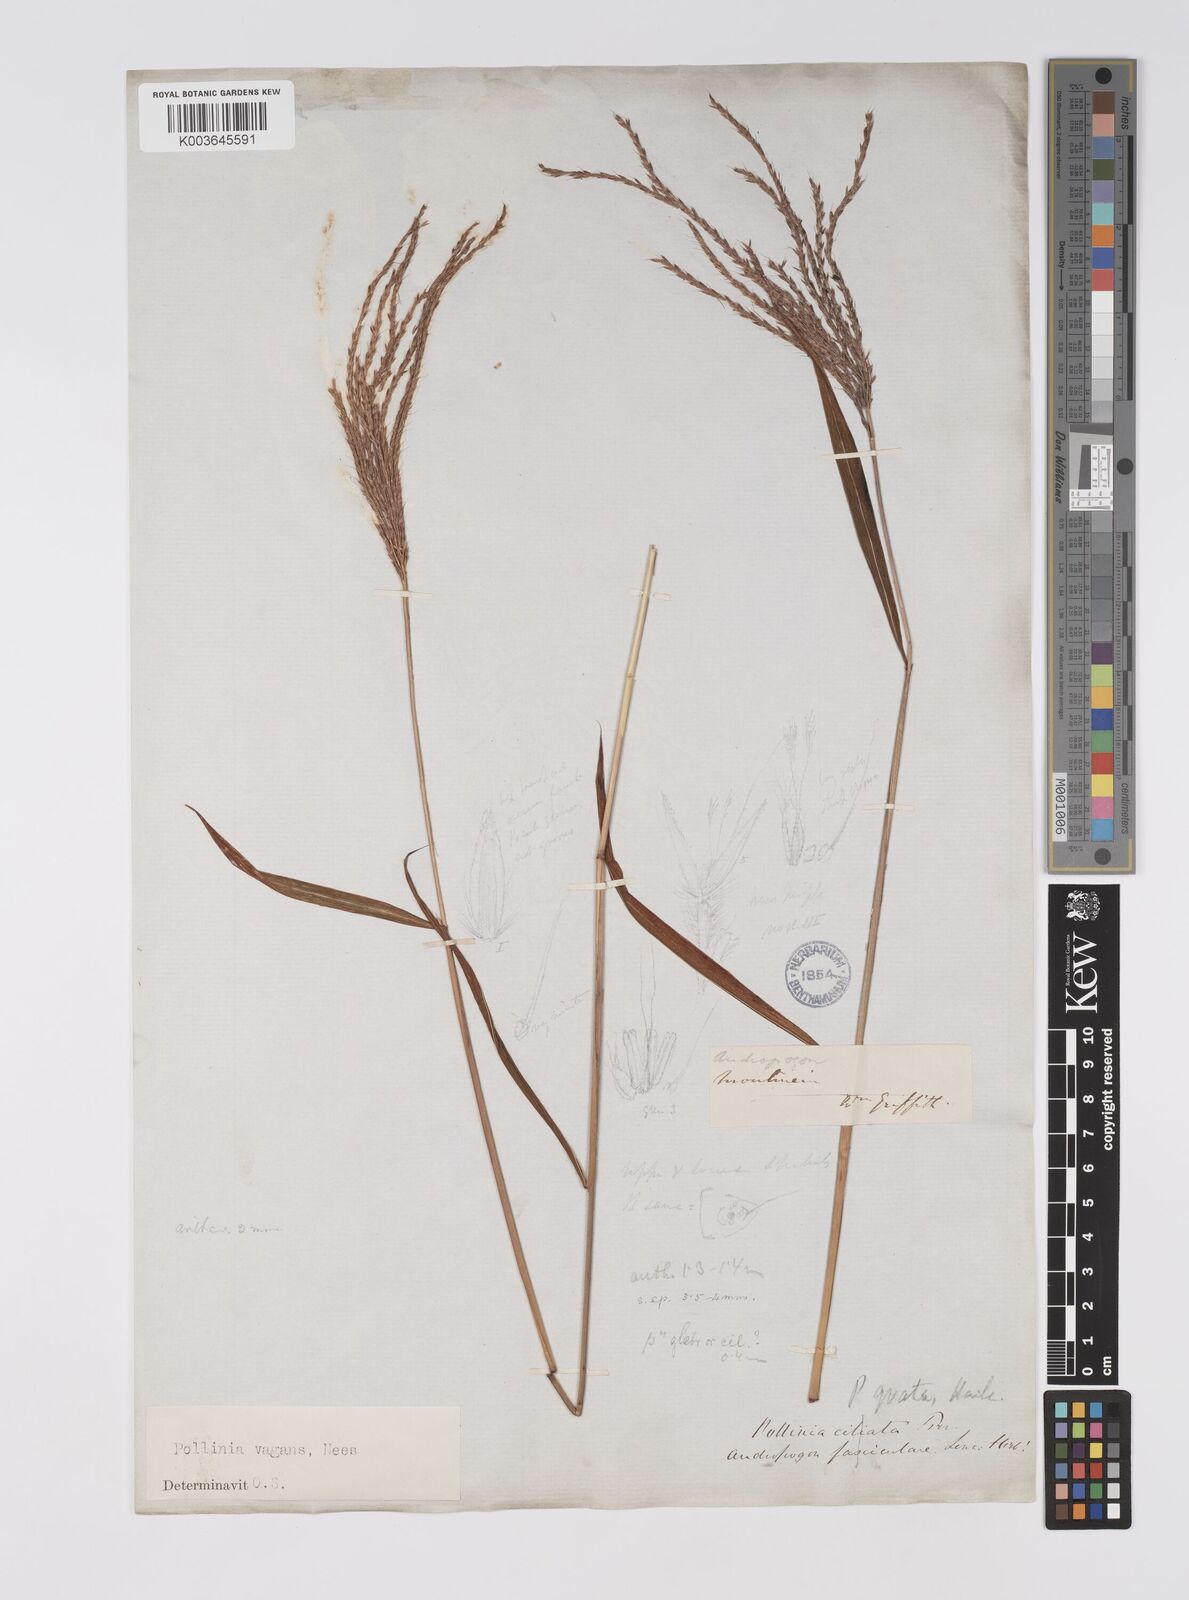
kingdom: Plantae
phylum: Tracheophyta
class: Liliopsida
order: Poales
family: Poaceae
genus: Microstegium
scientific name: Microstegium fasciculatum
